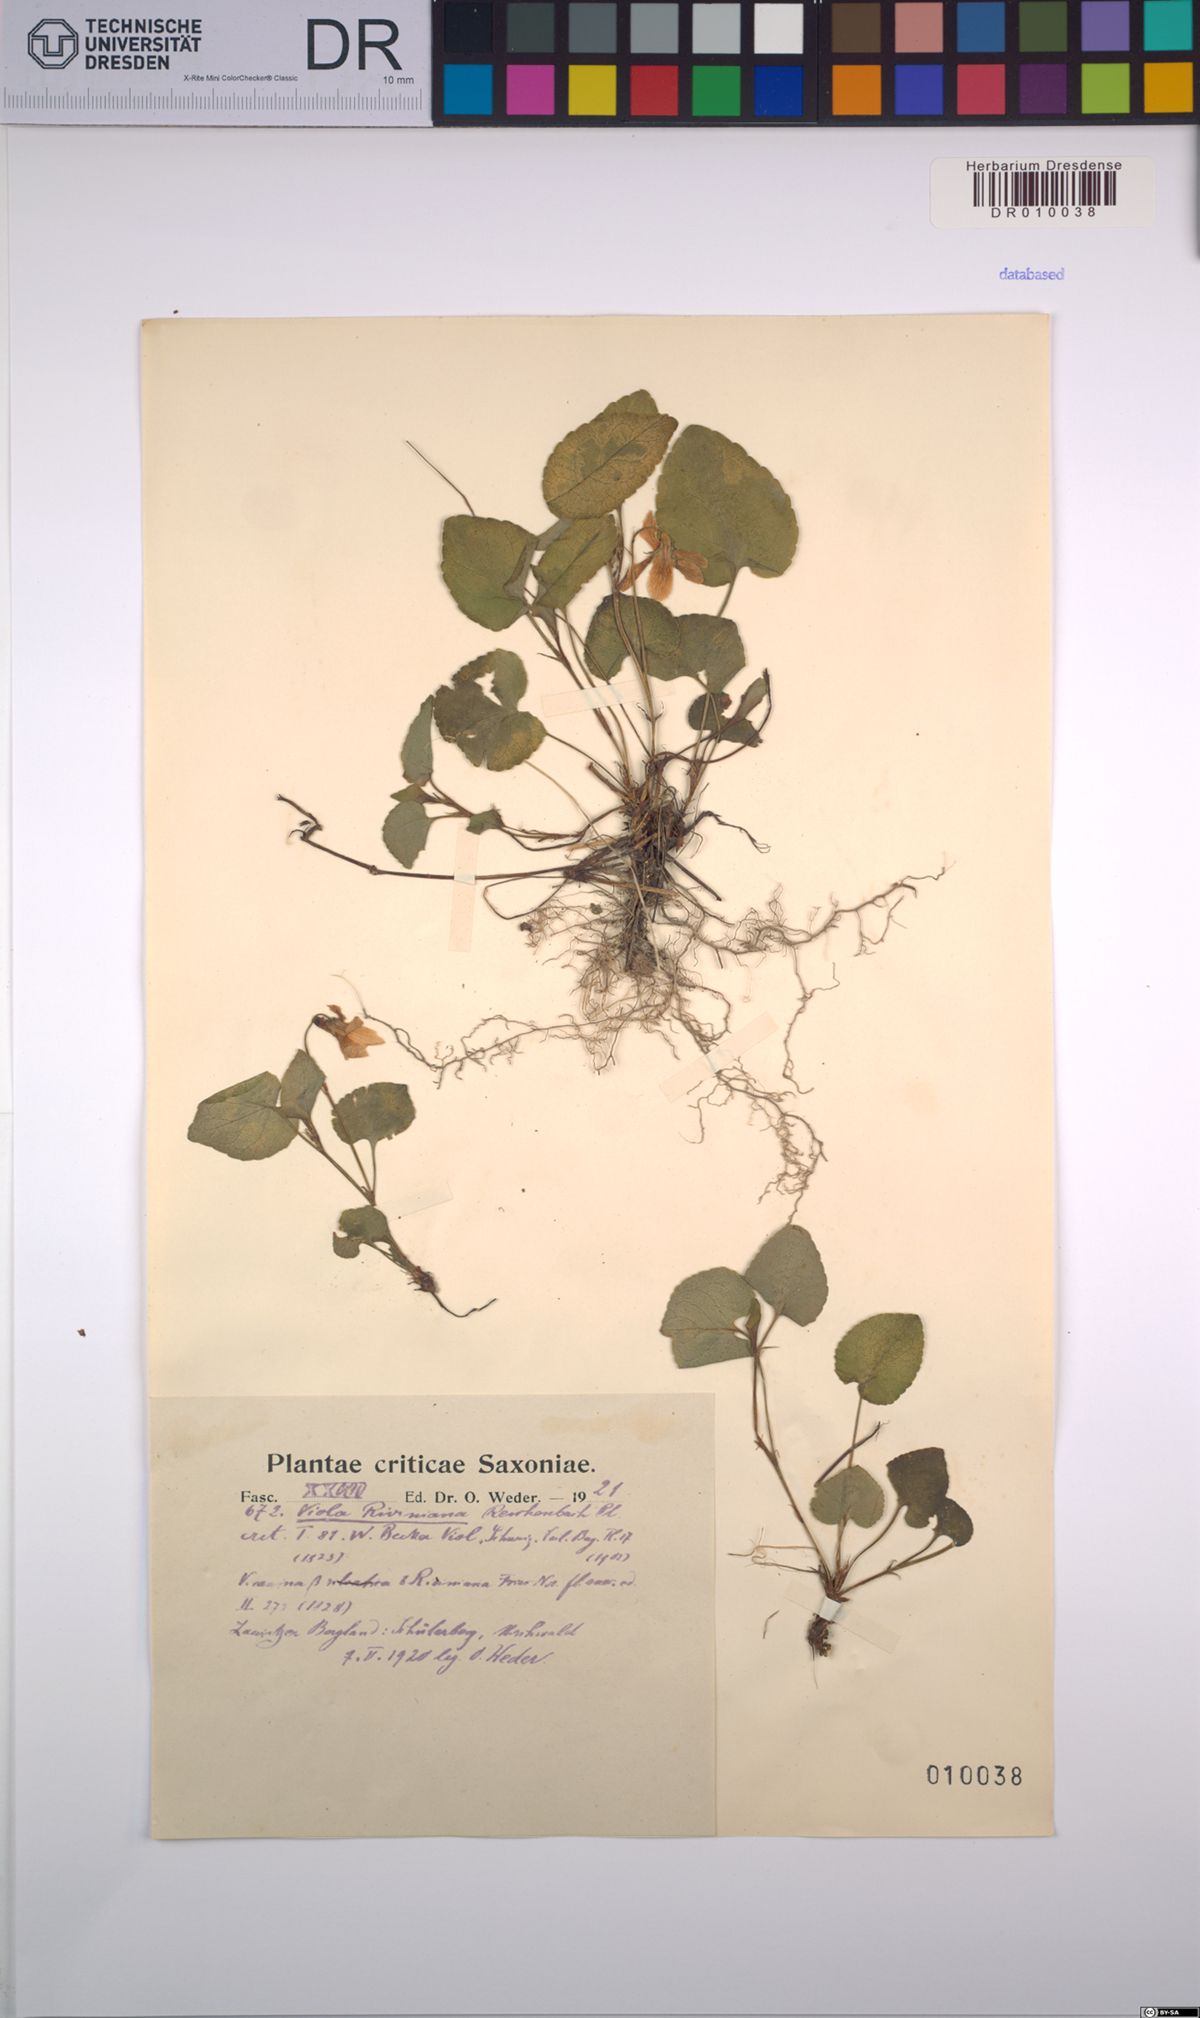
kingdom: Plantae
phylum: Tracheophyta
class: Magnoliopsida
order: Malpighiales
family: Violaceae
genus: Viola
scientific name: Viola riviniana
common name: Common dog-violet
